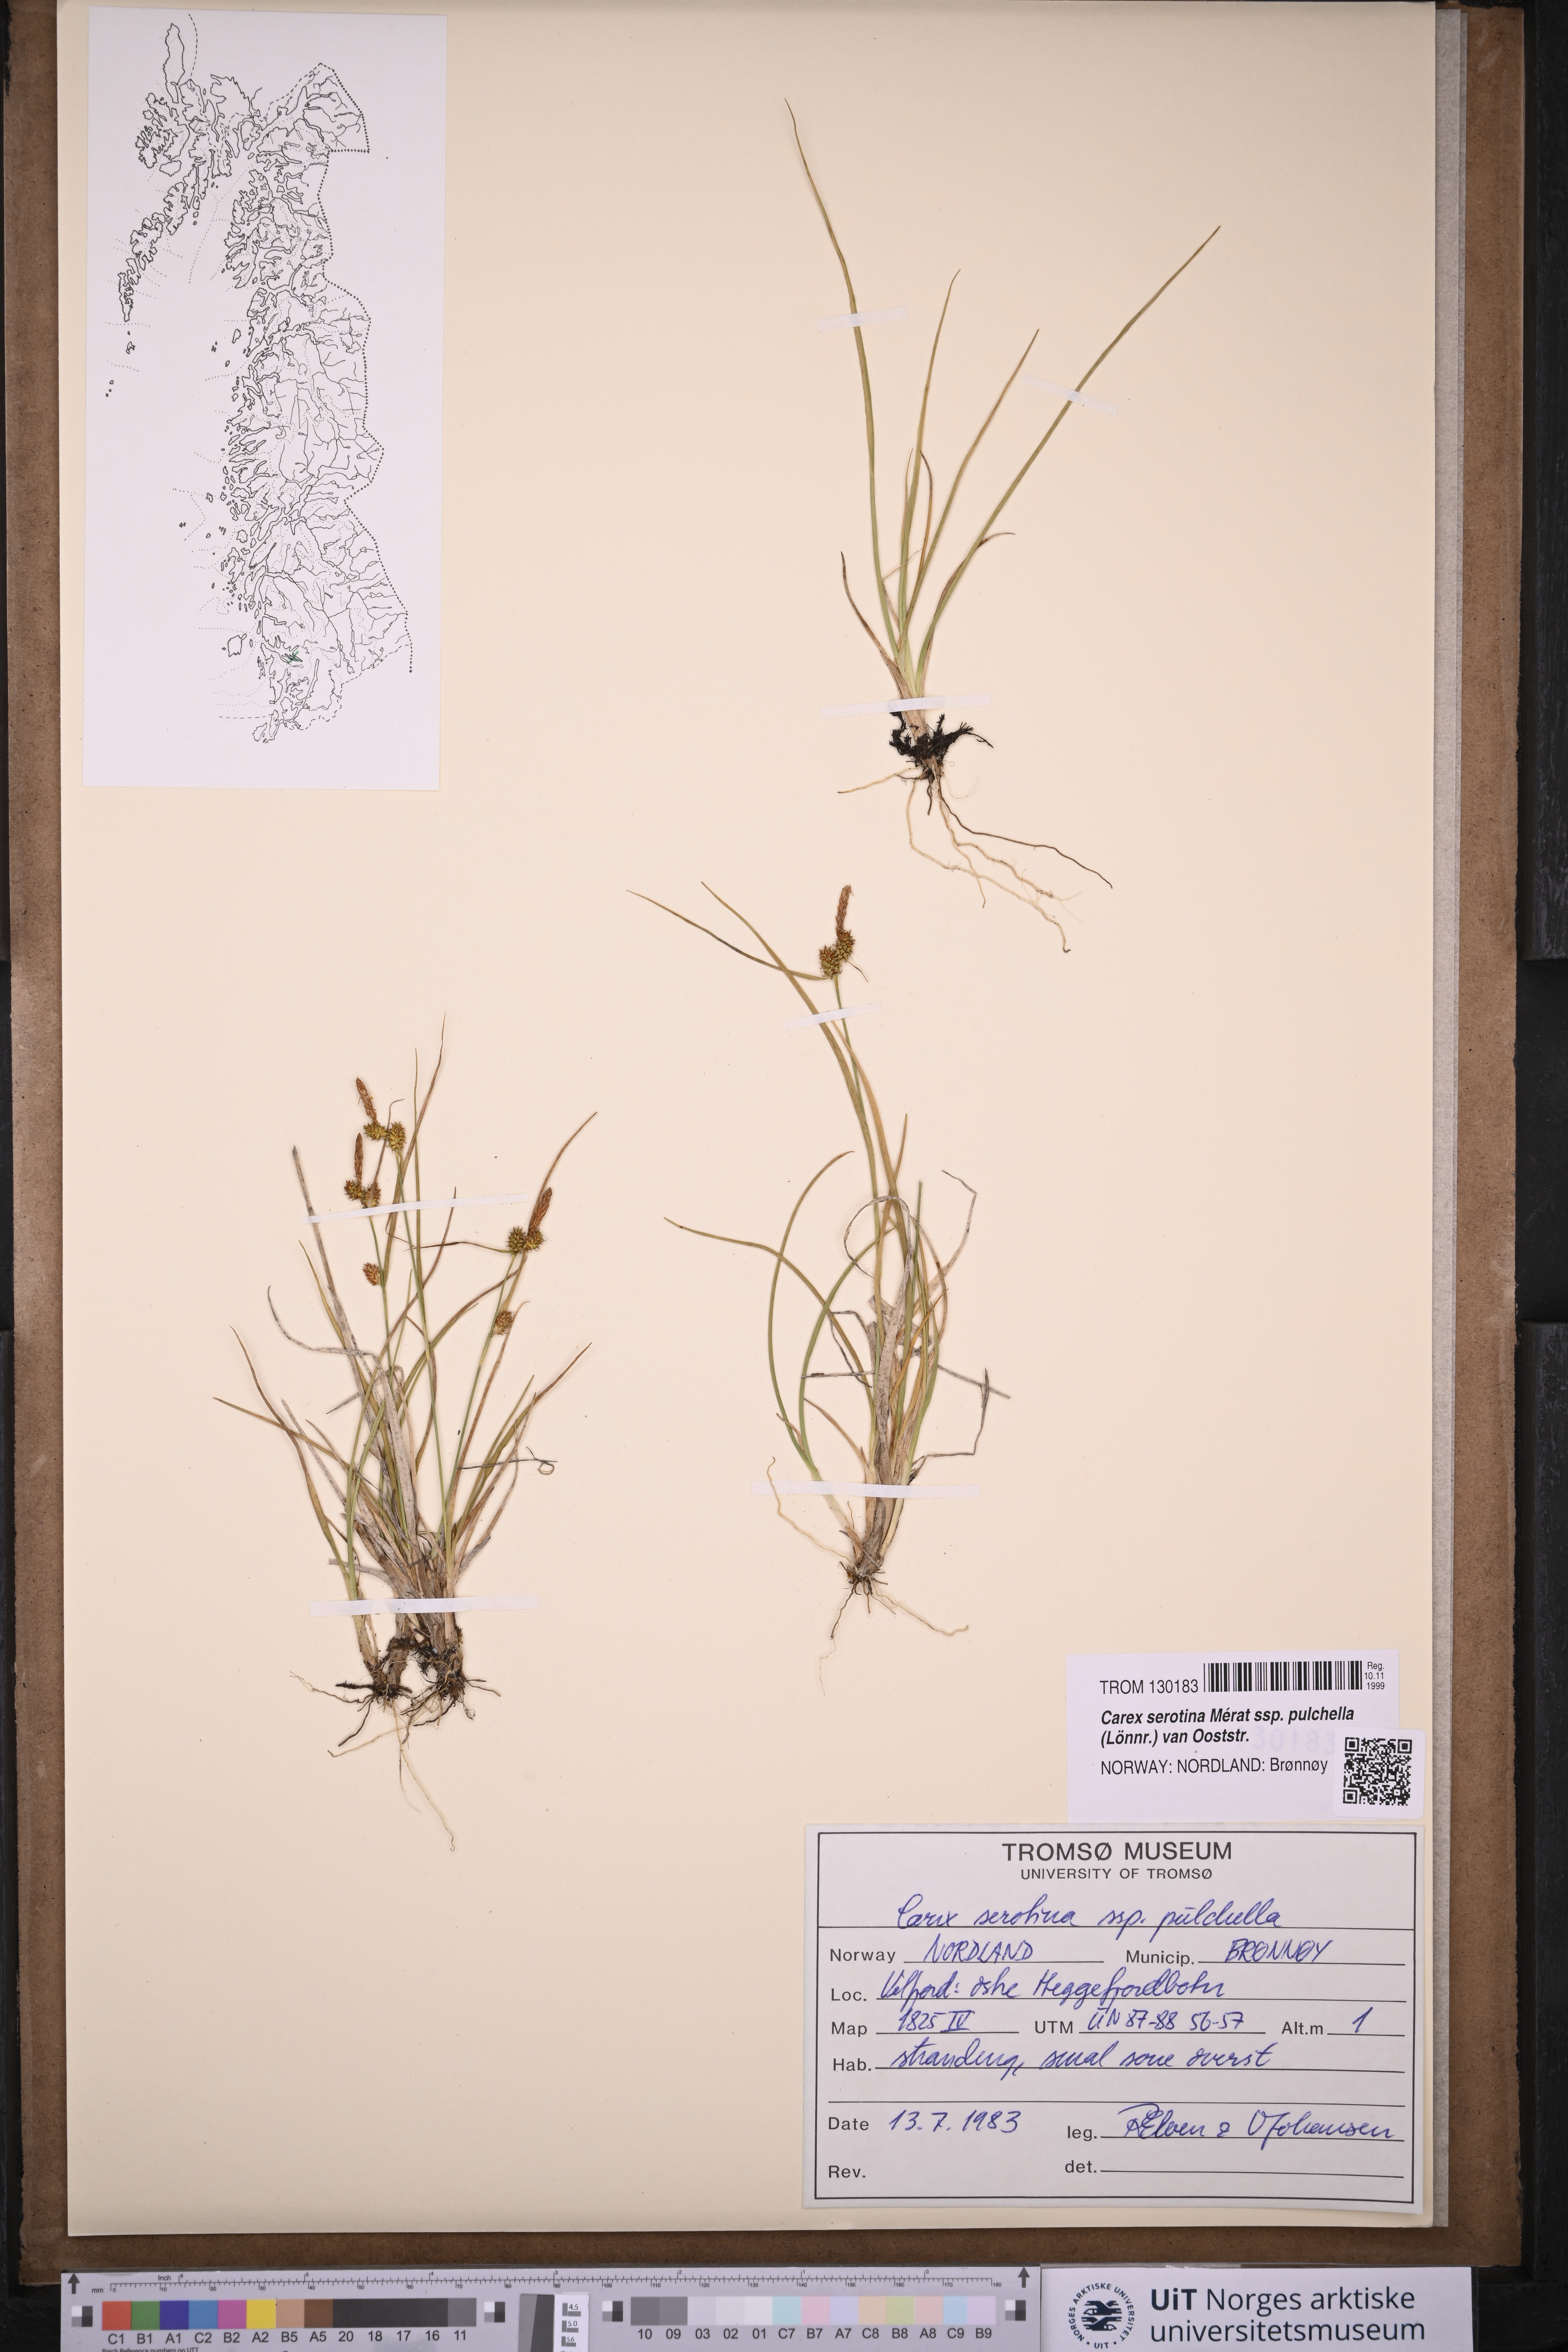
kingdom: Plantae
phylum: Tracheophyta
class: Liliopsida
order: Poales
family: Cyperaceae
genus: Carex
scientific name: Carex oederi
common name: Common & small-fruited yellow-sedge
